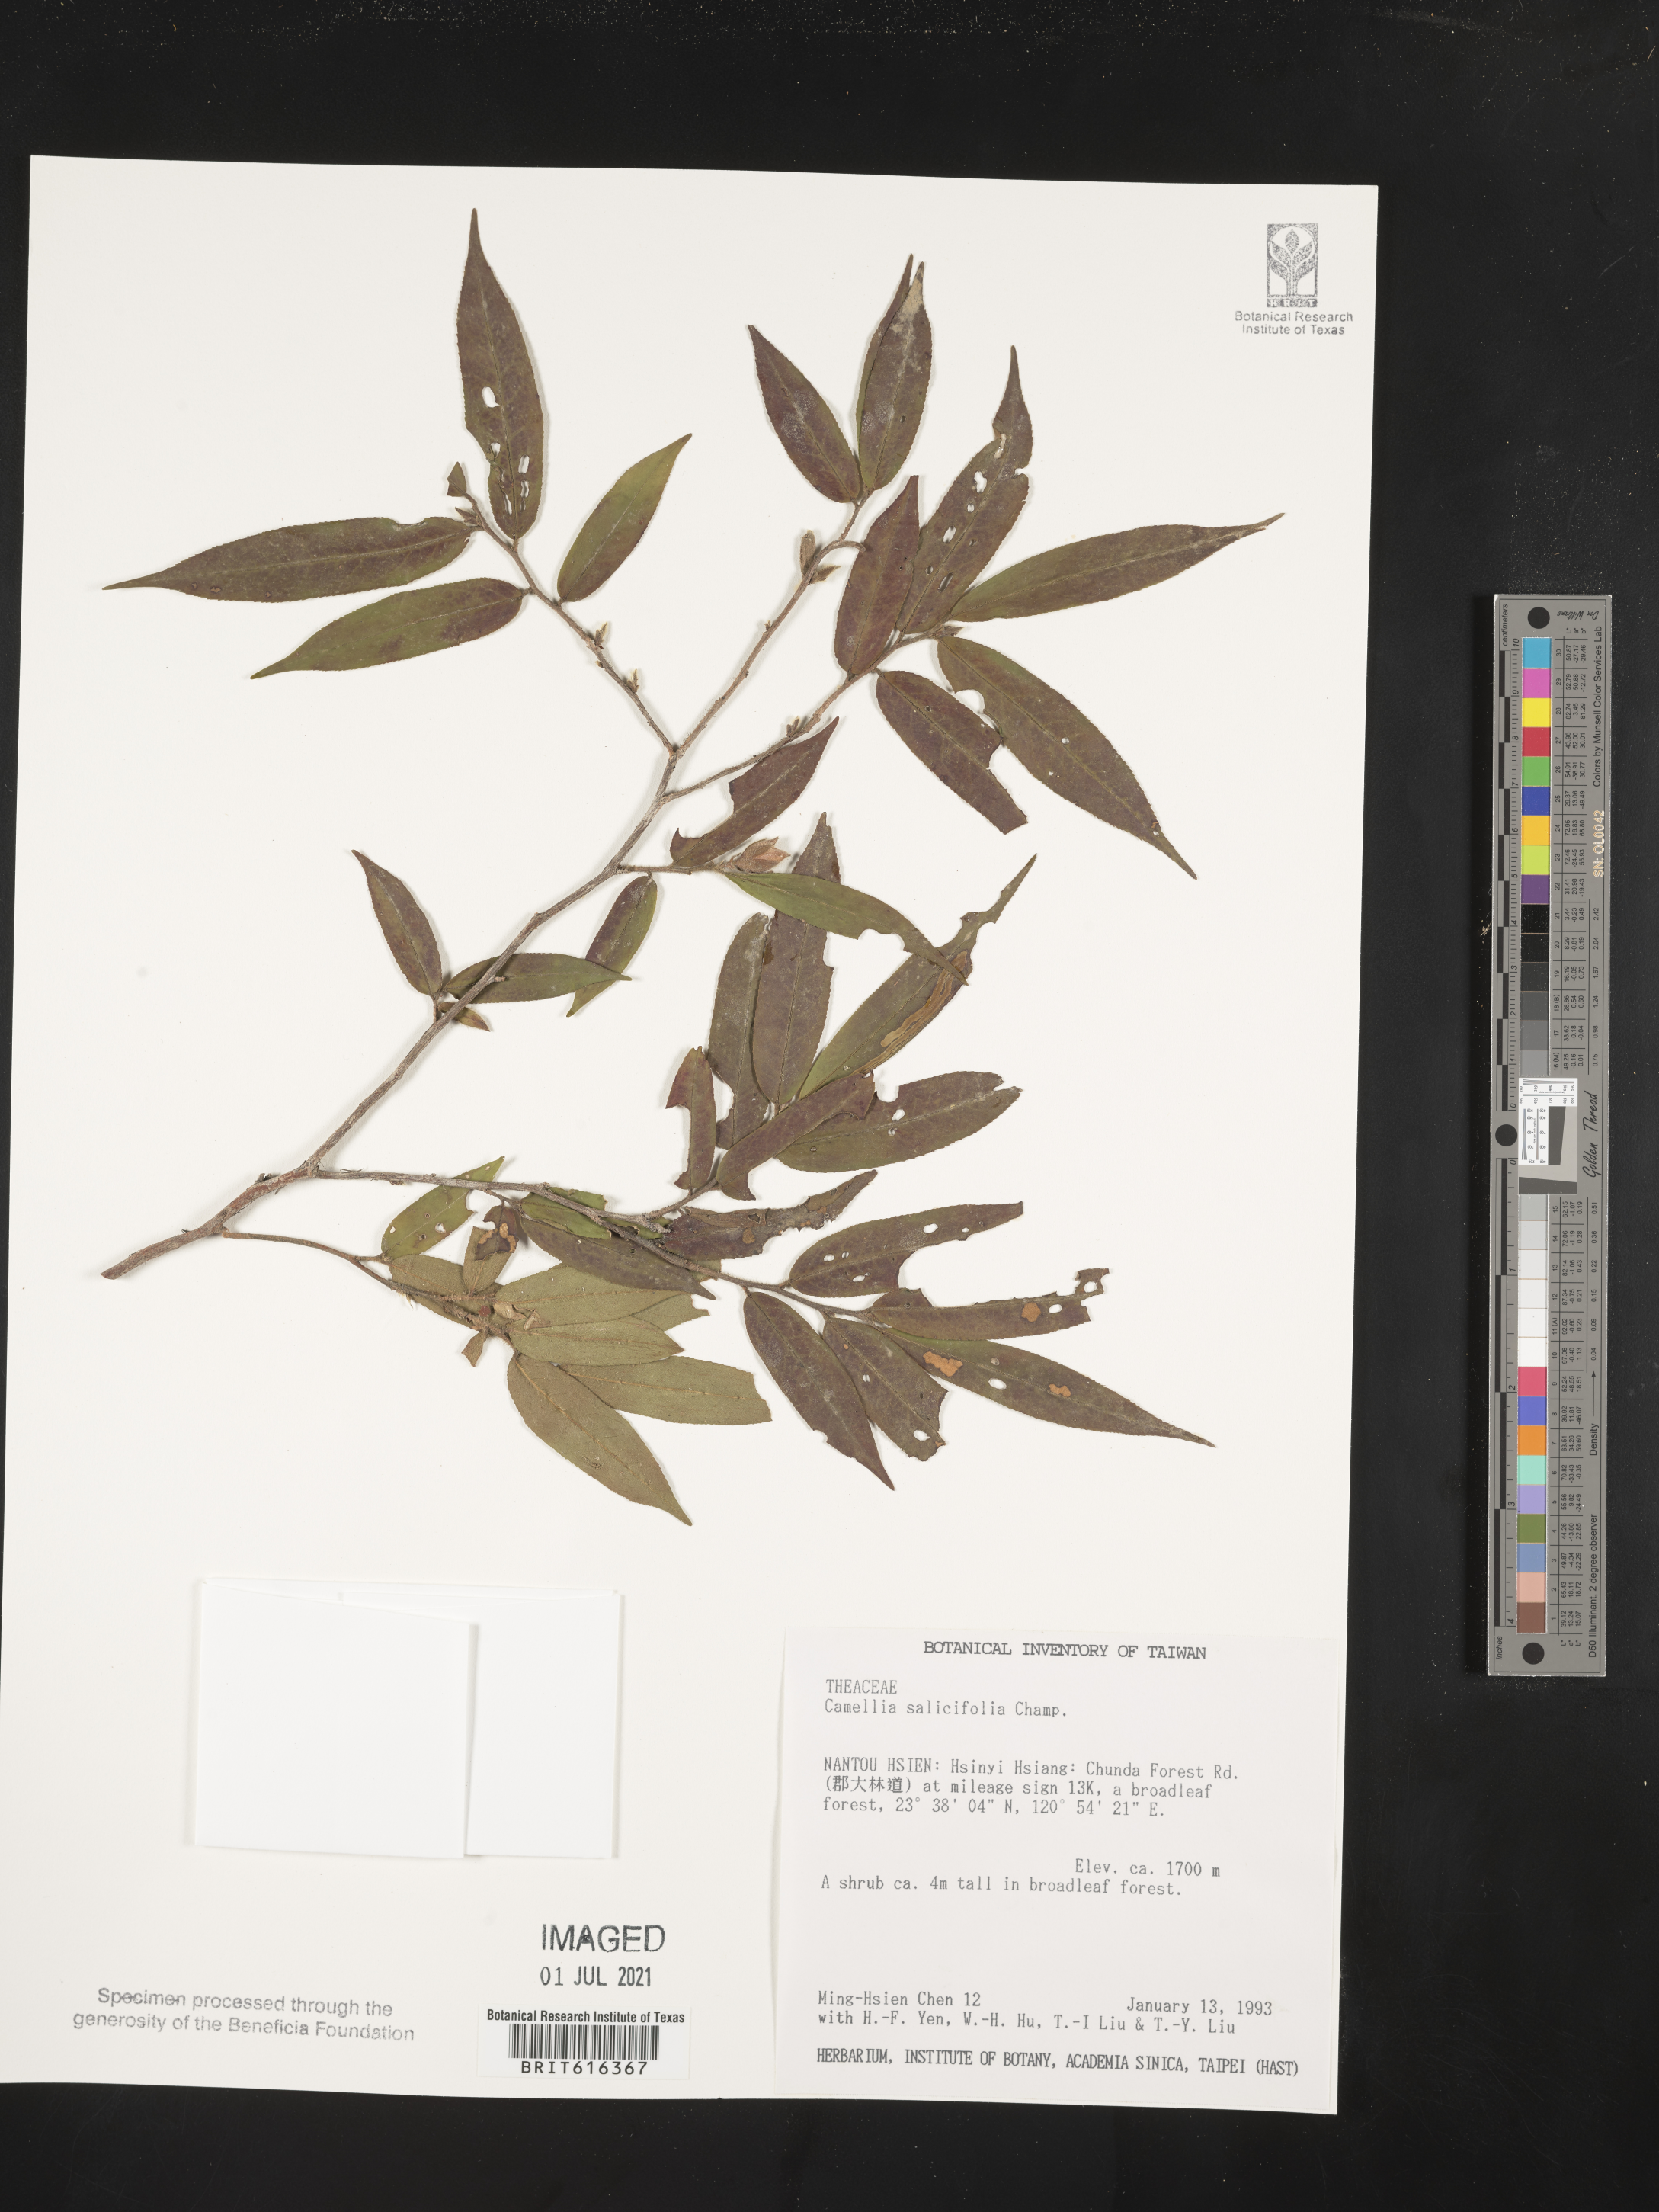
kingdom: Plantae
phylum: Tracheophyta
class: Magnoliopsida
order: Ericales
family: Theaceae
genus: Camellia
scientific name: Camellia salicifolia
